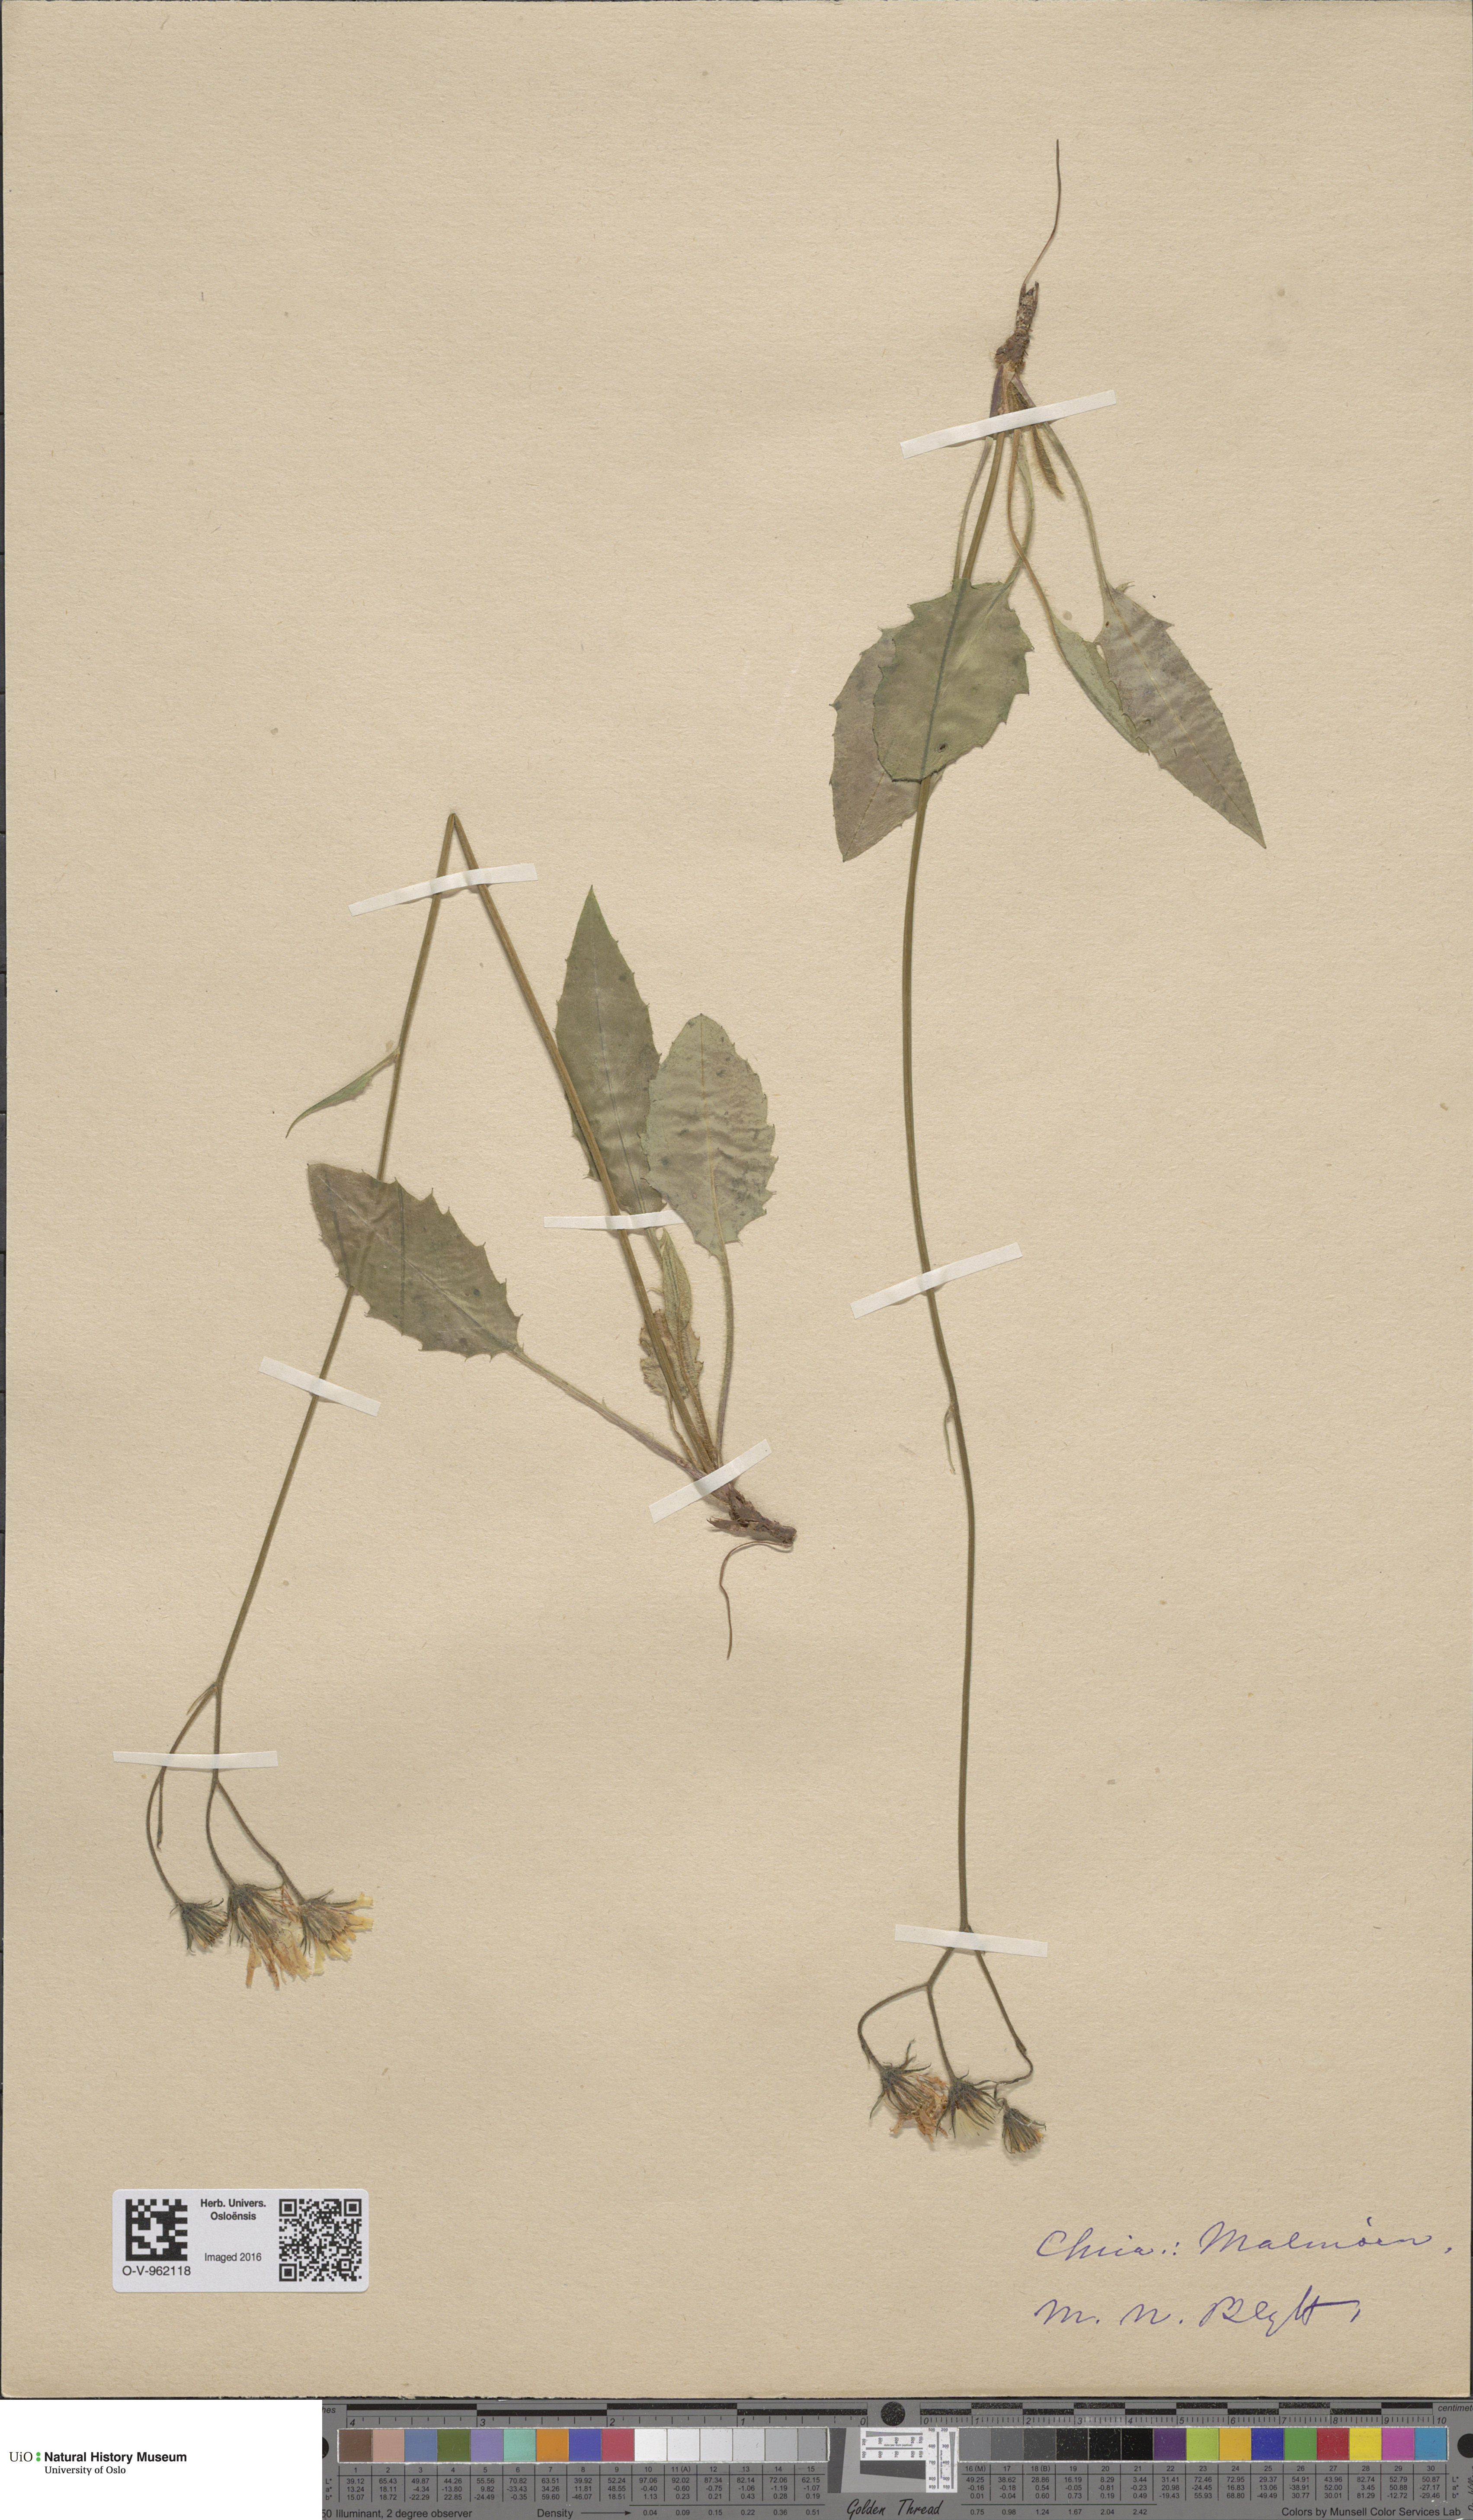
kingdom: Plantae
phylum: Tracheophyta
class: Magnoliopsida
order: Asterales
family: Asteraceae
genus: Hieracium
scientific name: Hieracium
